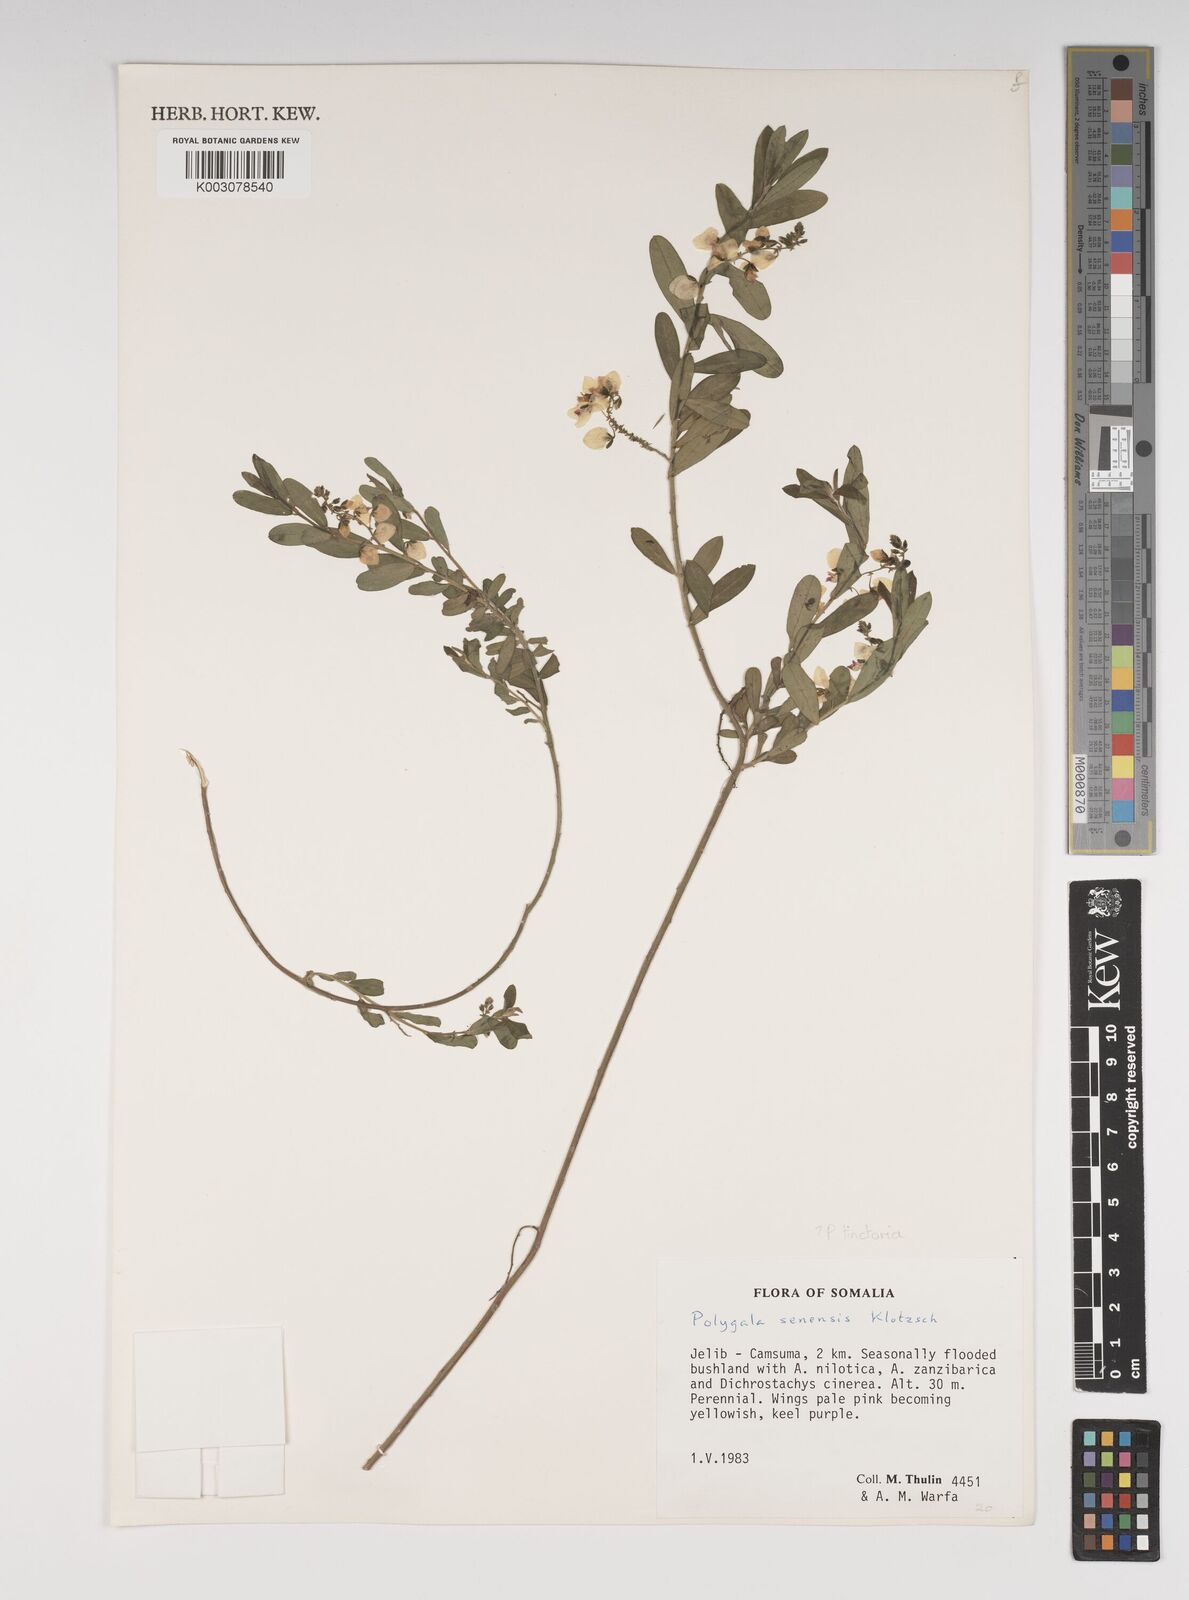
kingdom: Plantae
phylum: Tracheophyta
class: Magnoliopsida
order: Fabales
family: Polygalaceae
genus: Polygala
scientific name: Polygala senensis
